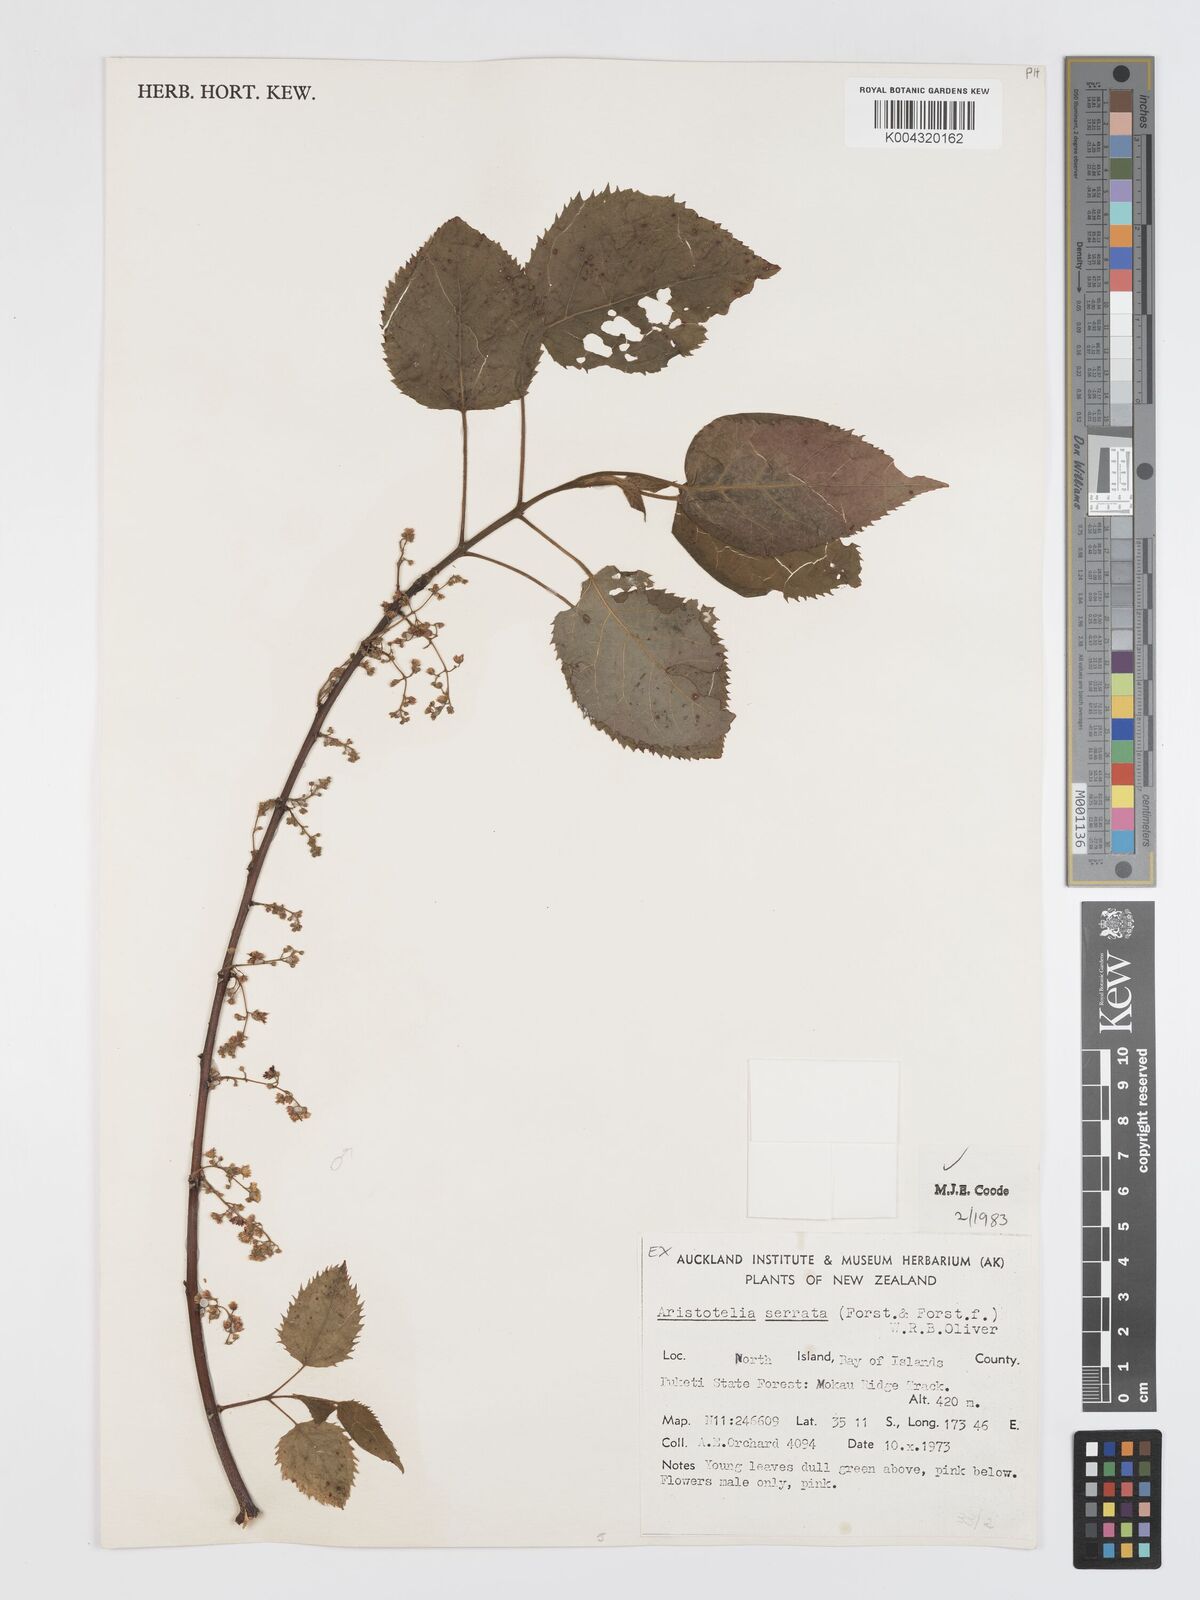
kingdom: Plantae
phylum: Tracheophyta
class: Magnoliopsida
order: Oxalidales
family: Elaeocarpaceae
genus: Aristotelia
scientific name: Aristotelia serrata
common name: New zealand wineberry
